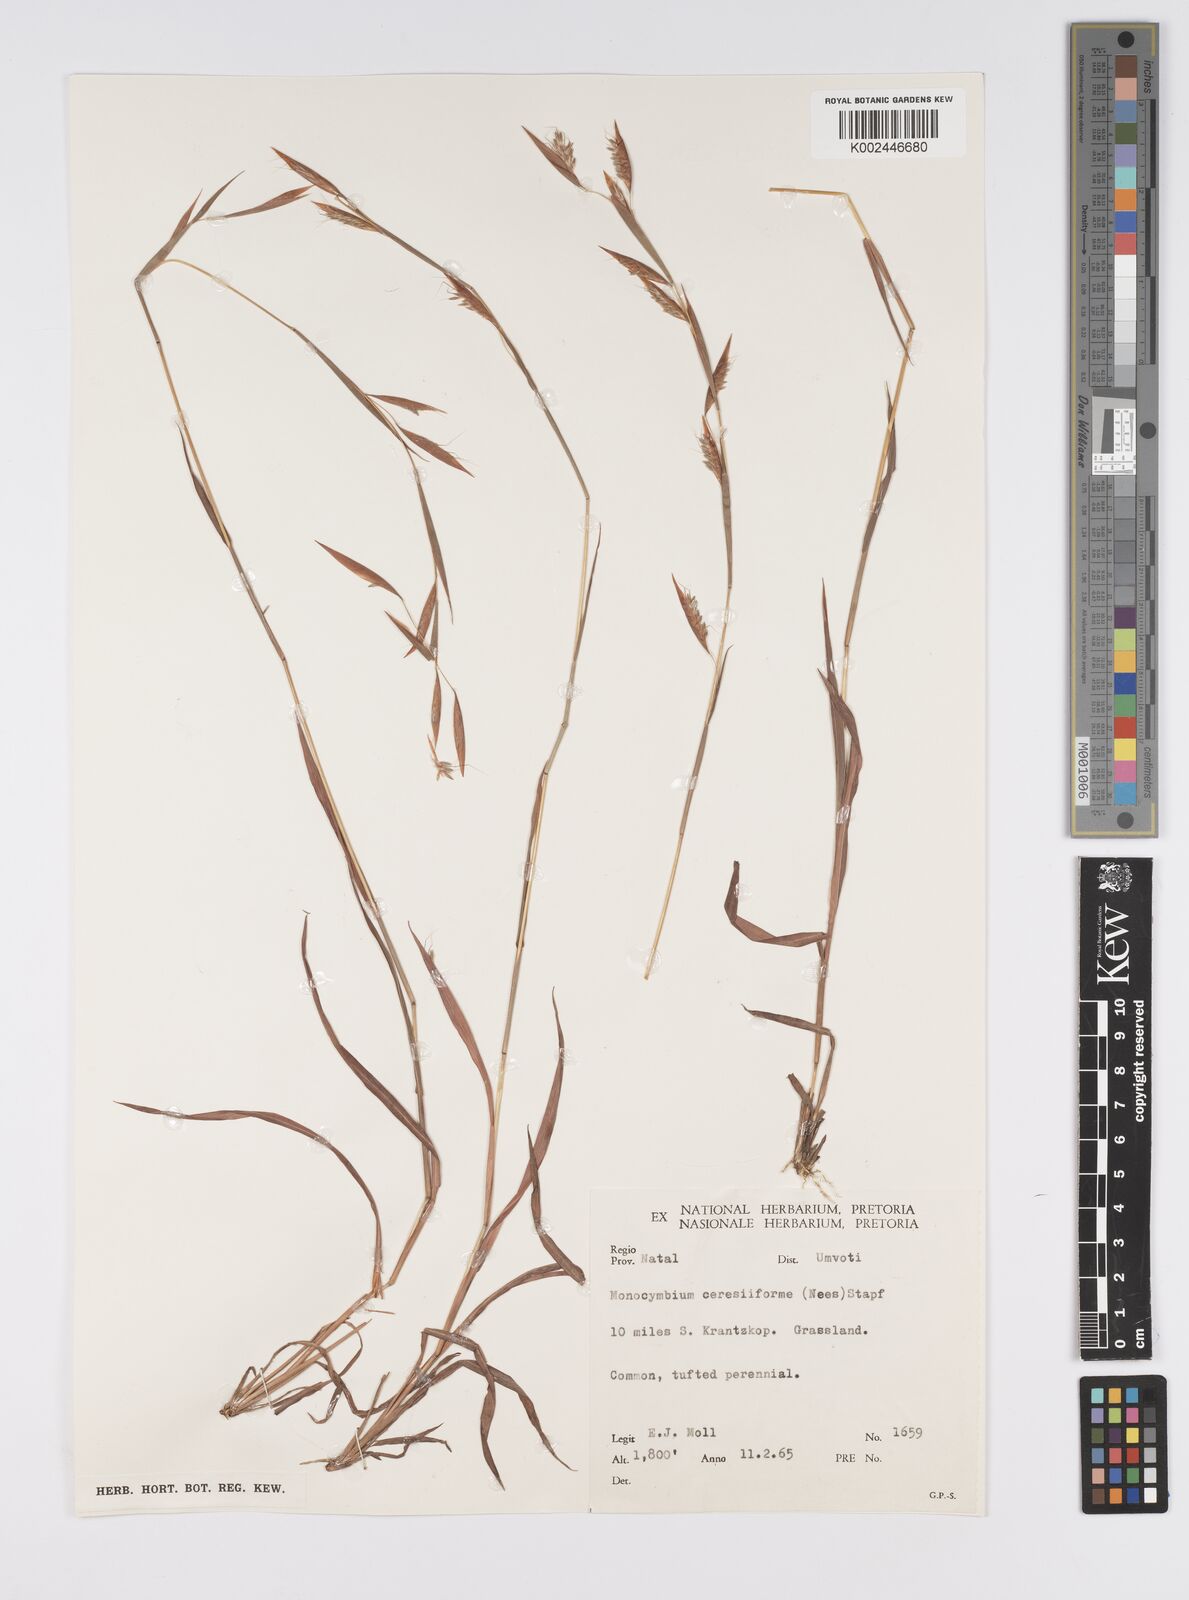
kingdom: Plantae
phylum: Tracheophyta
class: Liliopsida
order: Poales
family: Poaceae
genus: Monocymbium
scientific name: Monocymbium ceresiiforme
